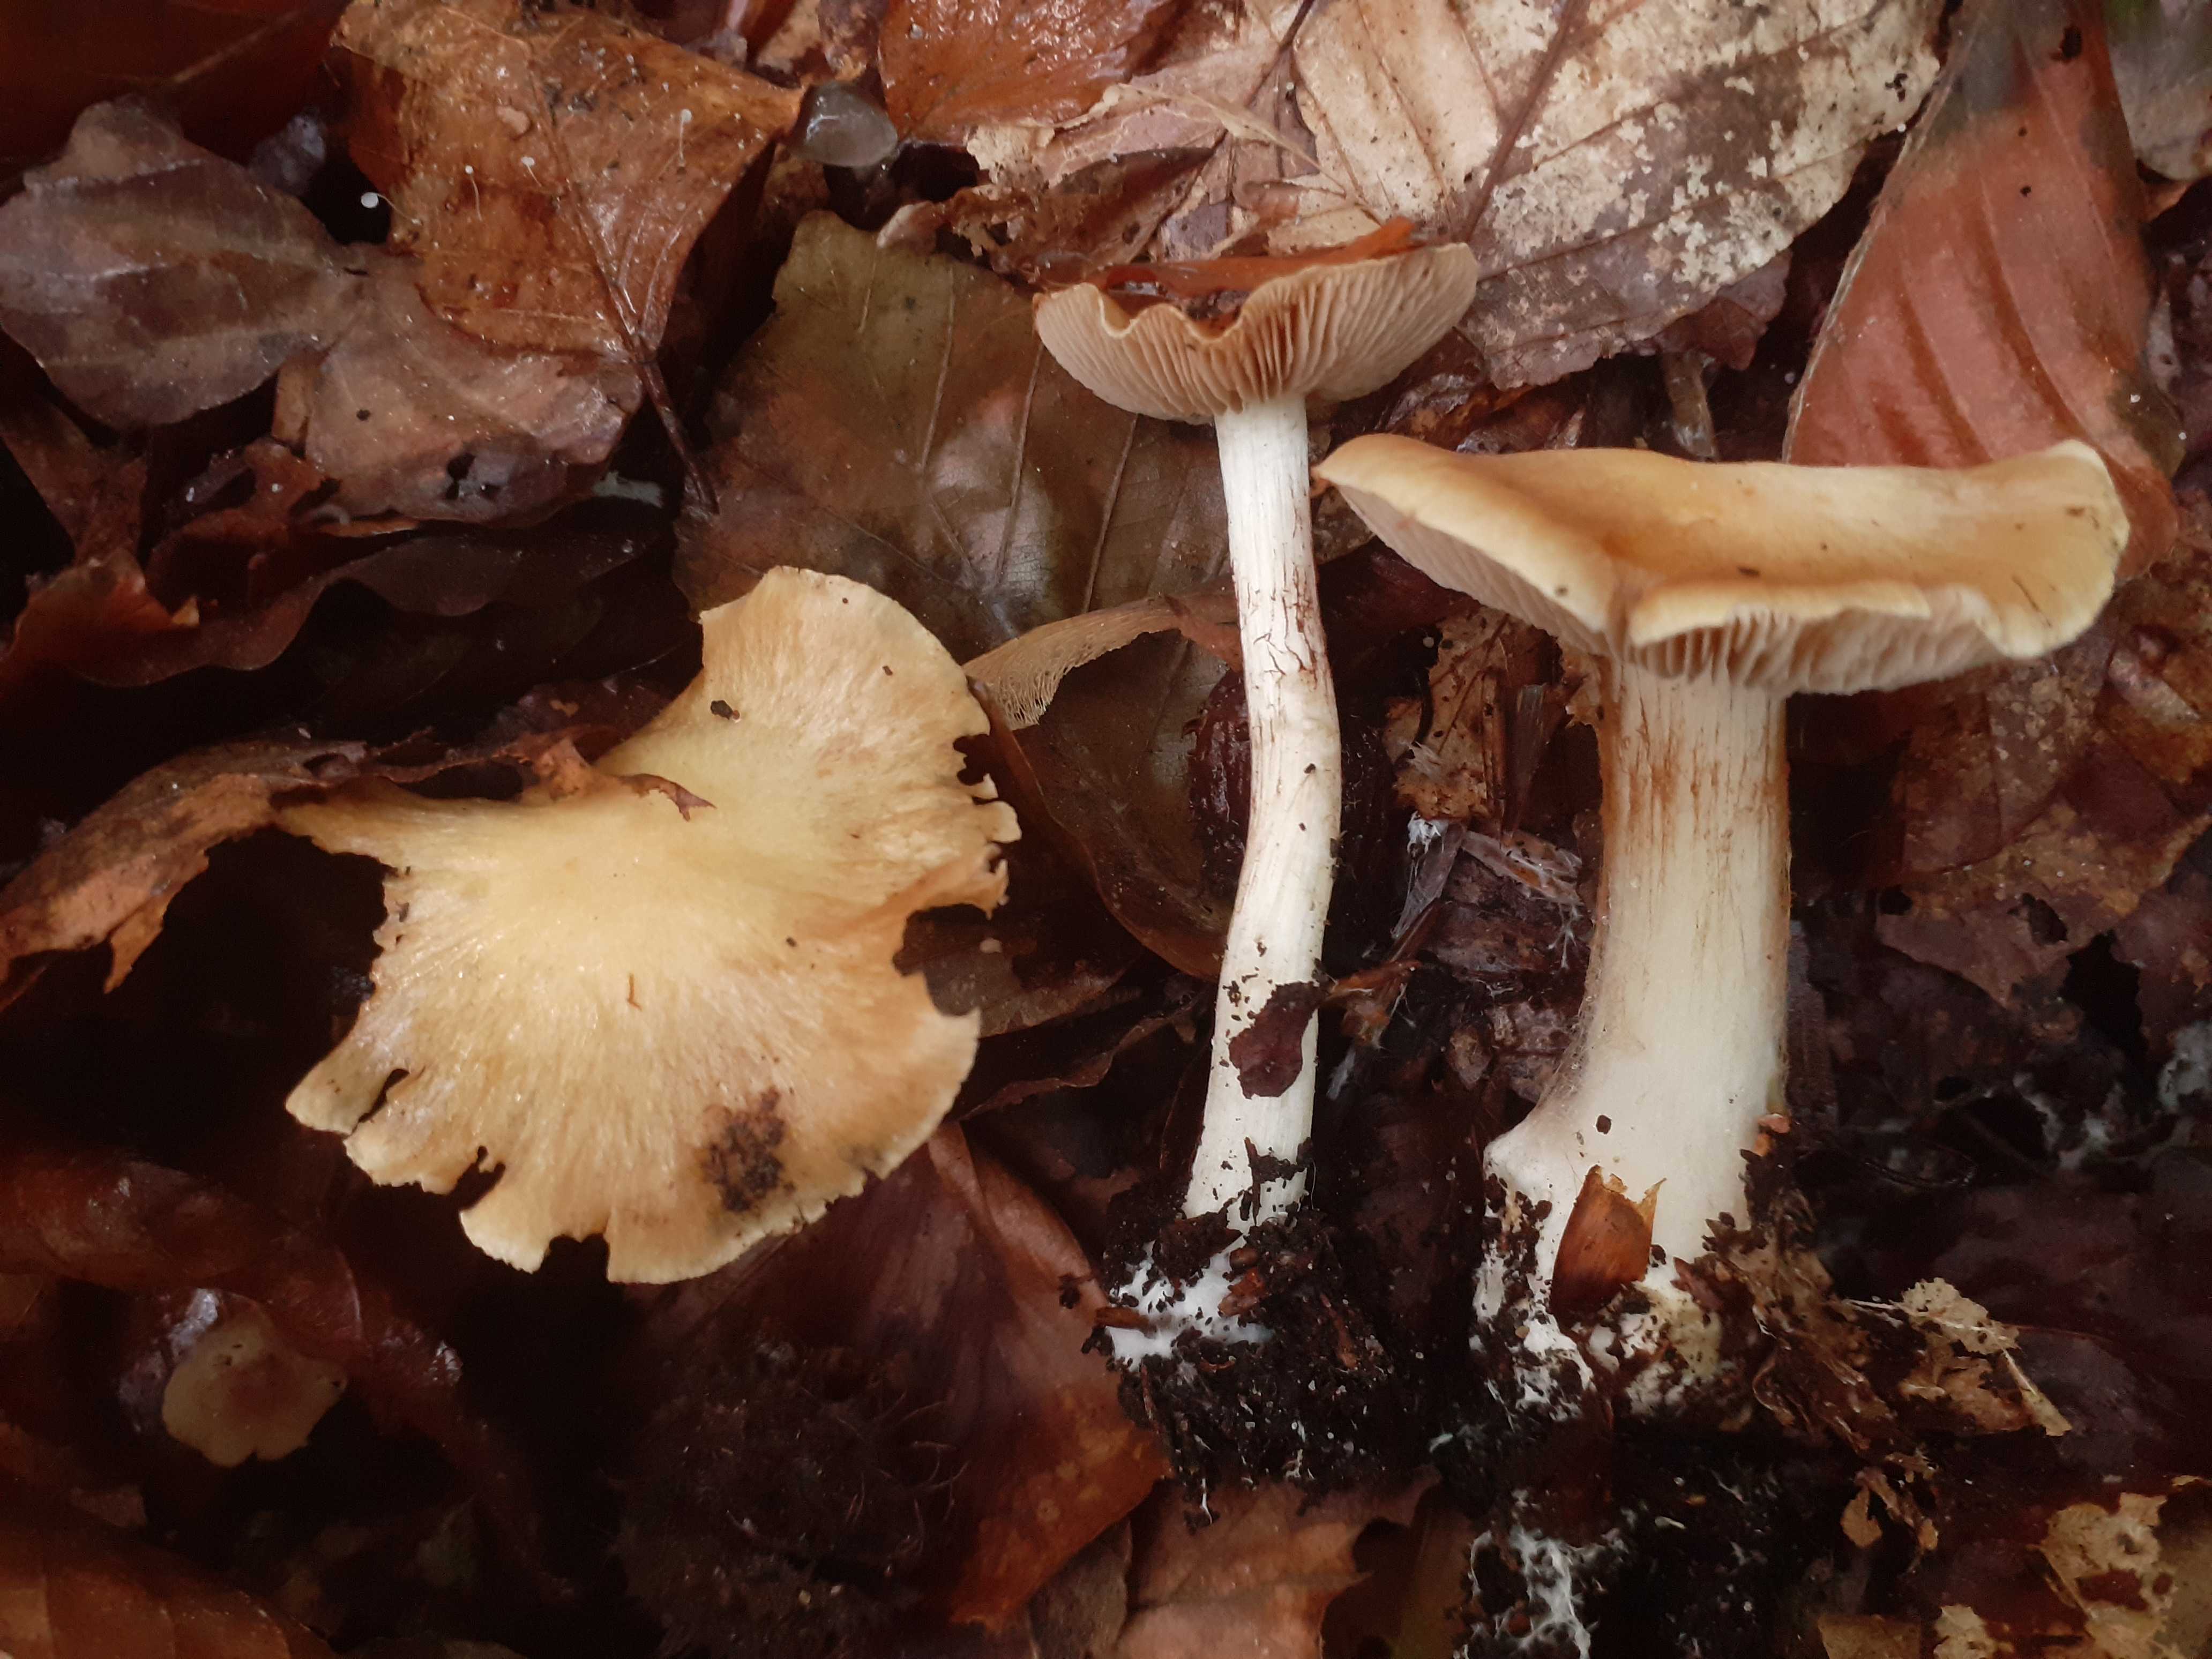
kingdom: Fungi
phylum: Basidiomycota
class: Agaricomycetes
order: Agaricales
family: Cortinariaceae
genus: Thaxterogaster
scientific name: Thaxterogaster talus
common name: knogle-slørhat
